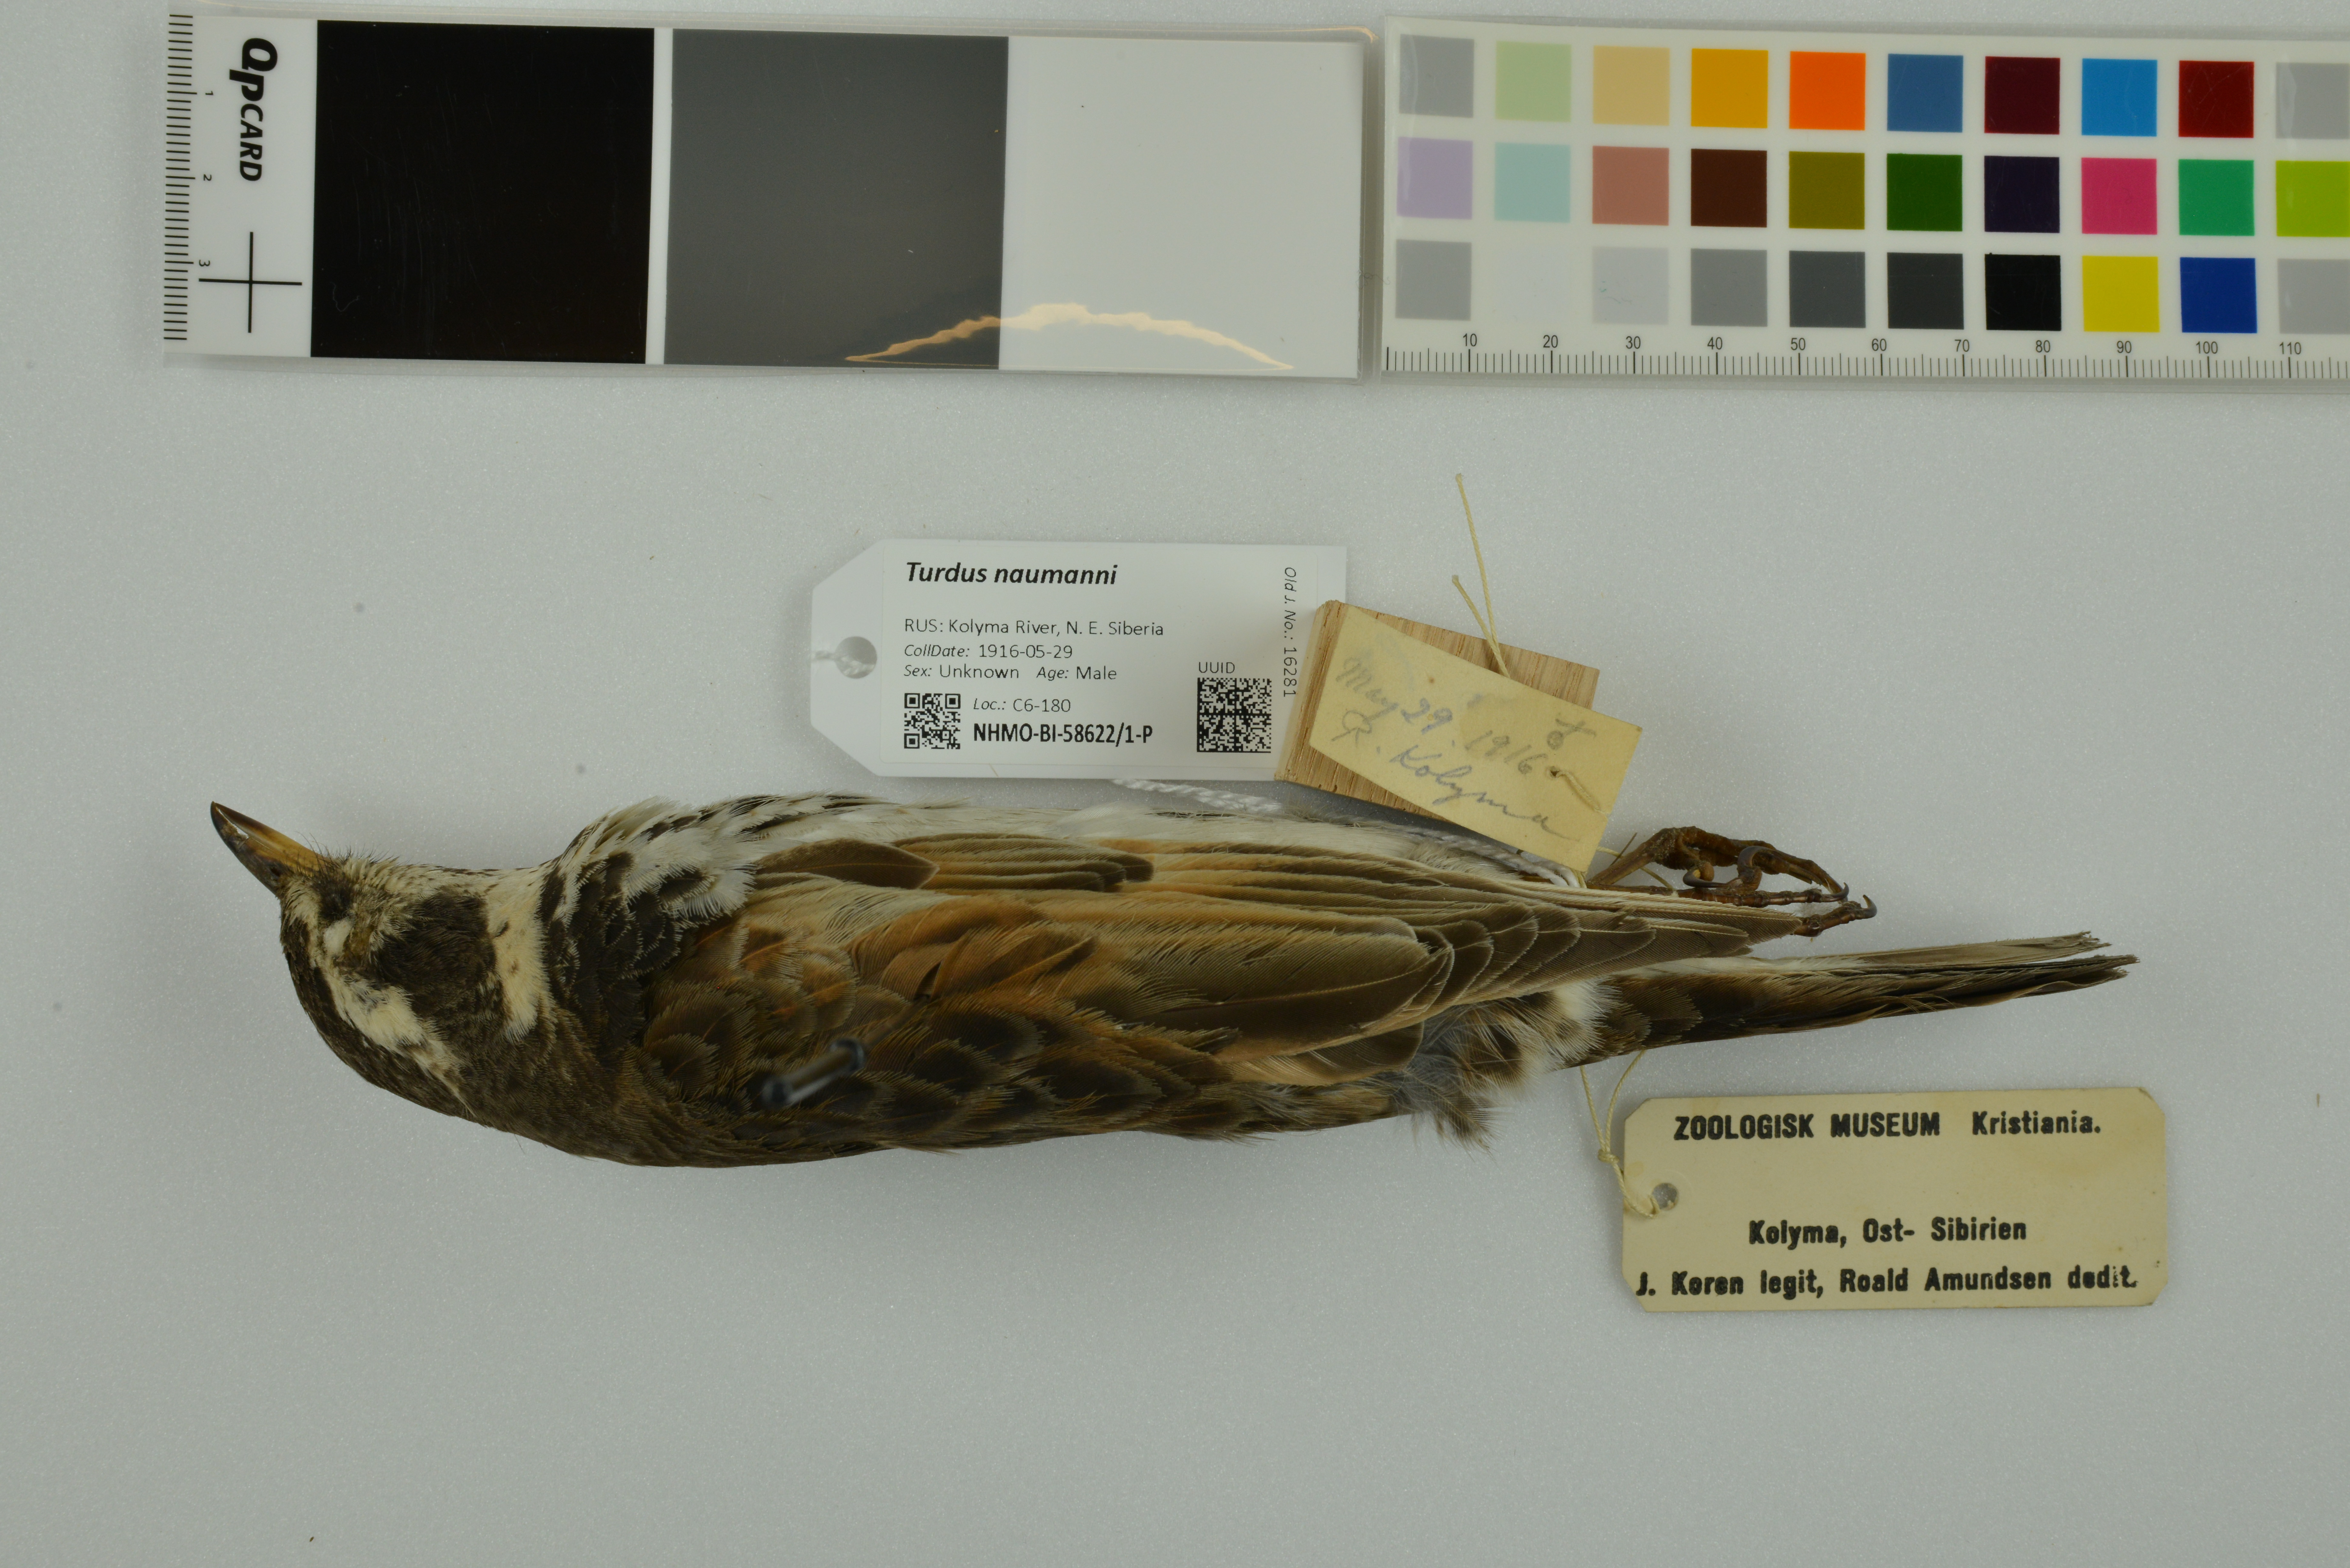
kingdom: Animalia
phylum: Chordata
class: Aves
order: Passeriformes
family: Turdidae
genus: Turdus
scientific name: Turdus naumanni
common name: Naumann's thrush
